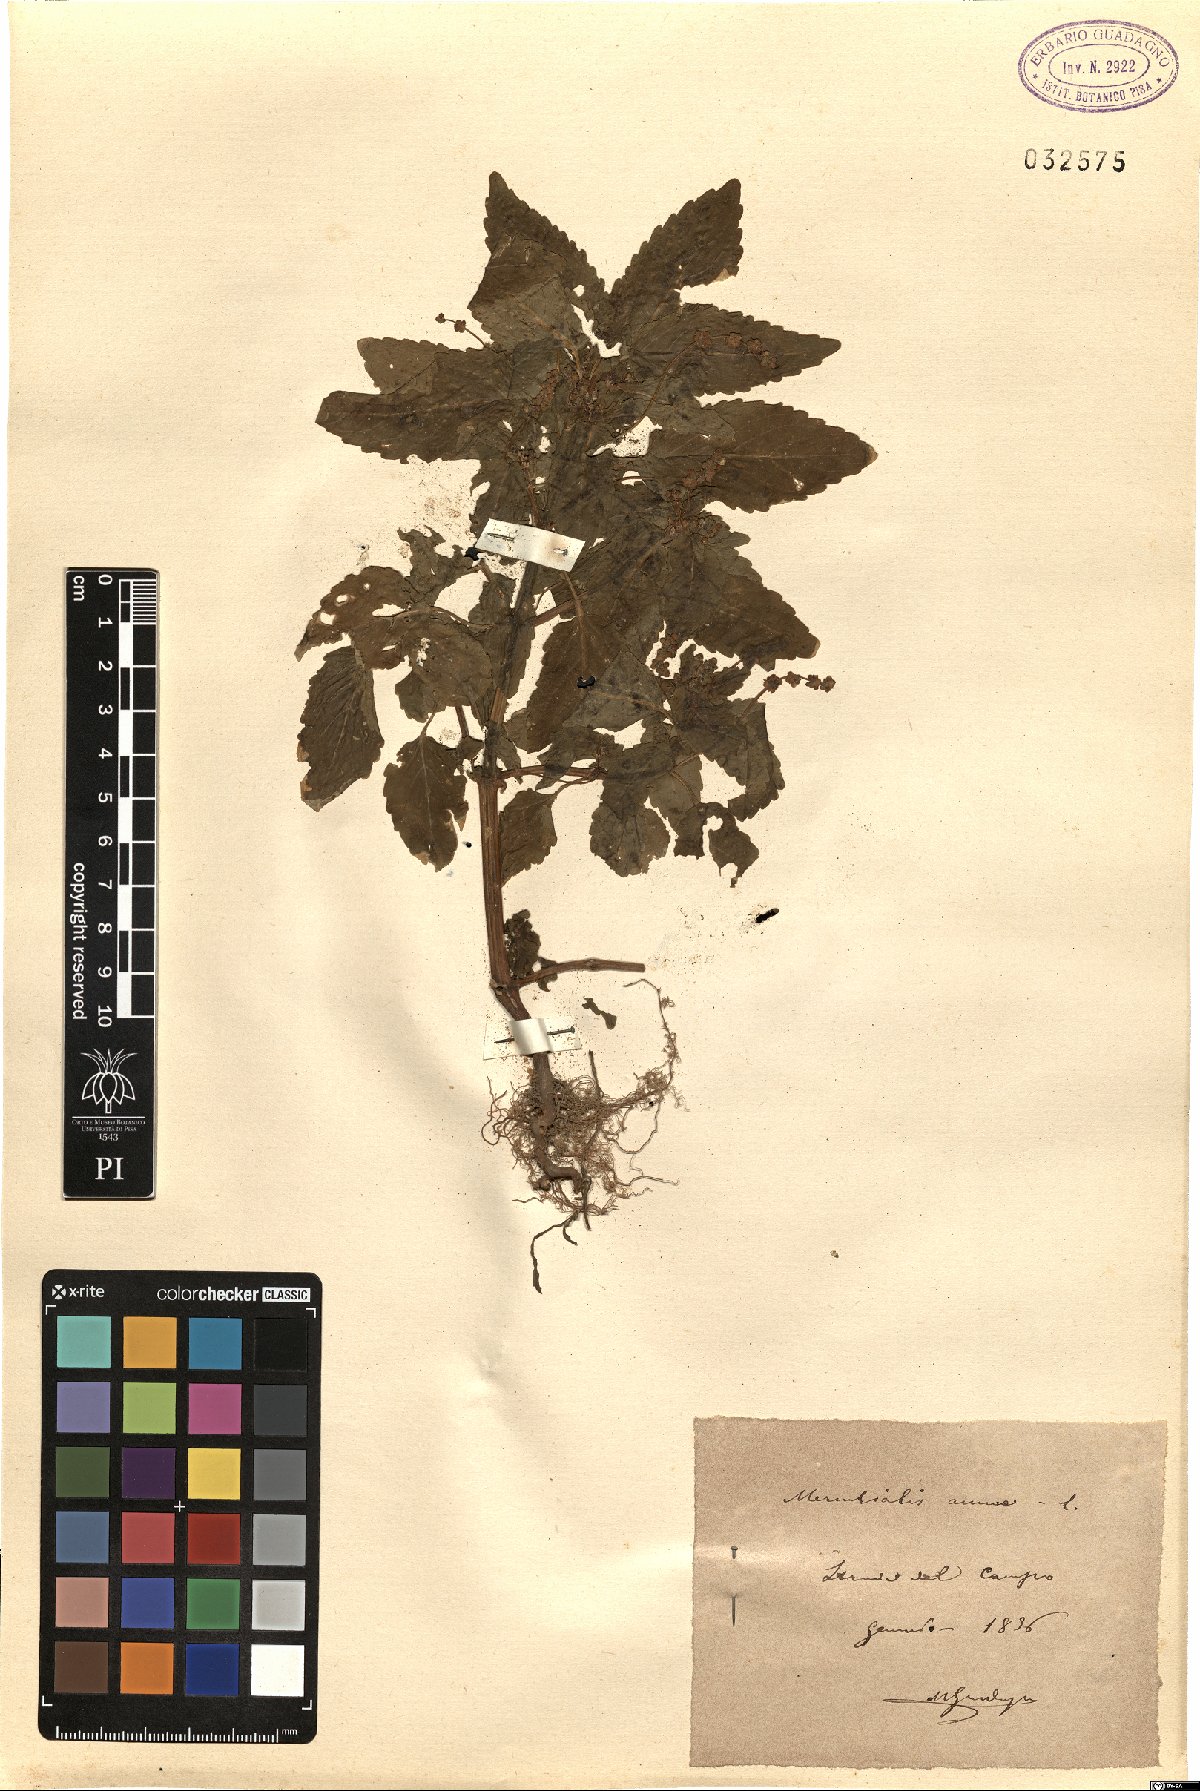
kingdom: Plantae
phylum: Tracheophyta
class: Magnoliopsida
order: Malpighiales
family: Euphorbiaceae
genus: Mercurialis
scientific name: Mercurialis annua
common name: Annual mercury
